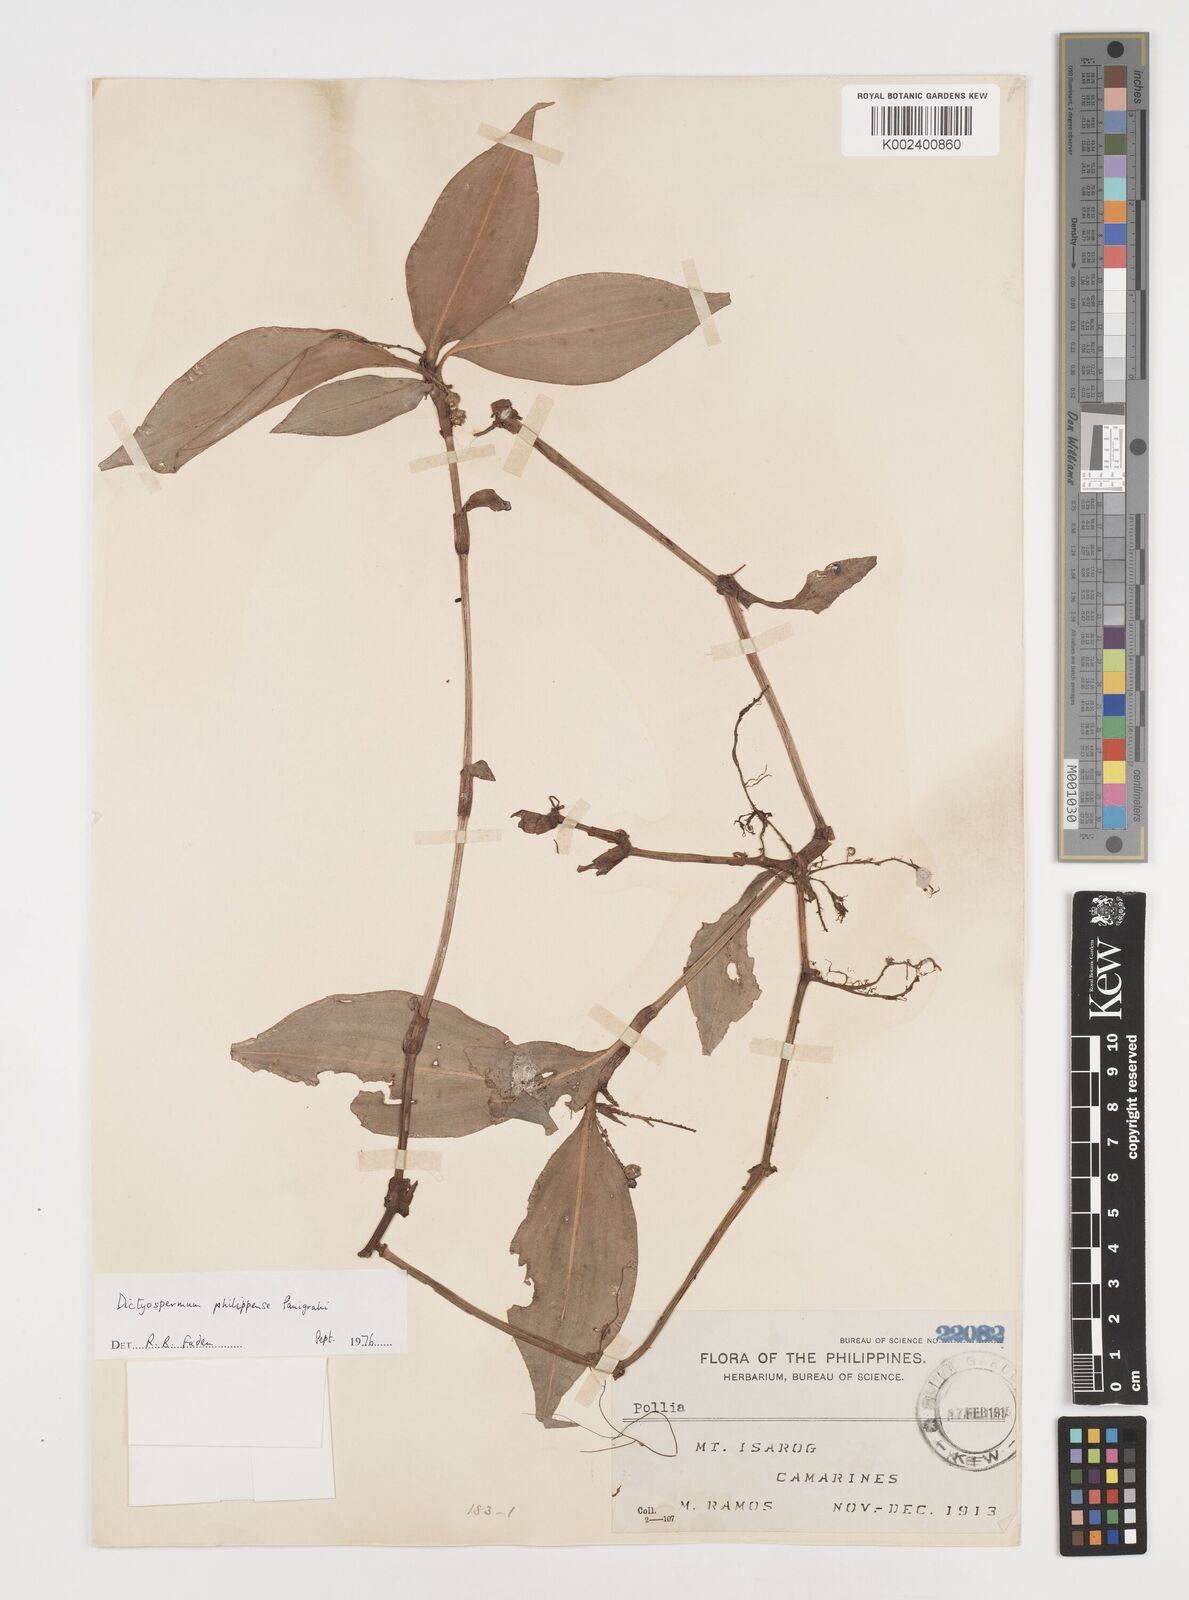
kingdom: Plantae
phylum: Tracheophyta
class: Liliopsida
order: Commelinales
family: Commelinaceae
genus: Tricarpelema
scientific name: Tricarpelema philippense
